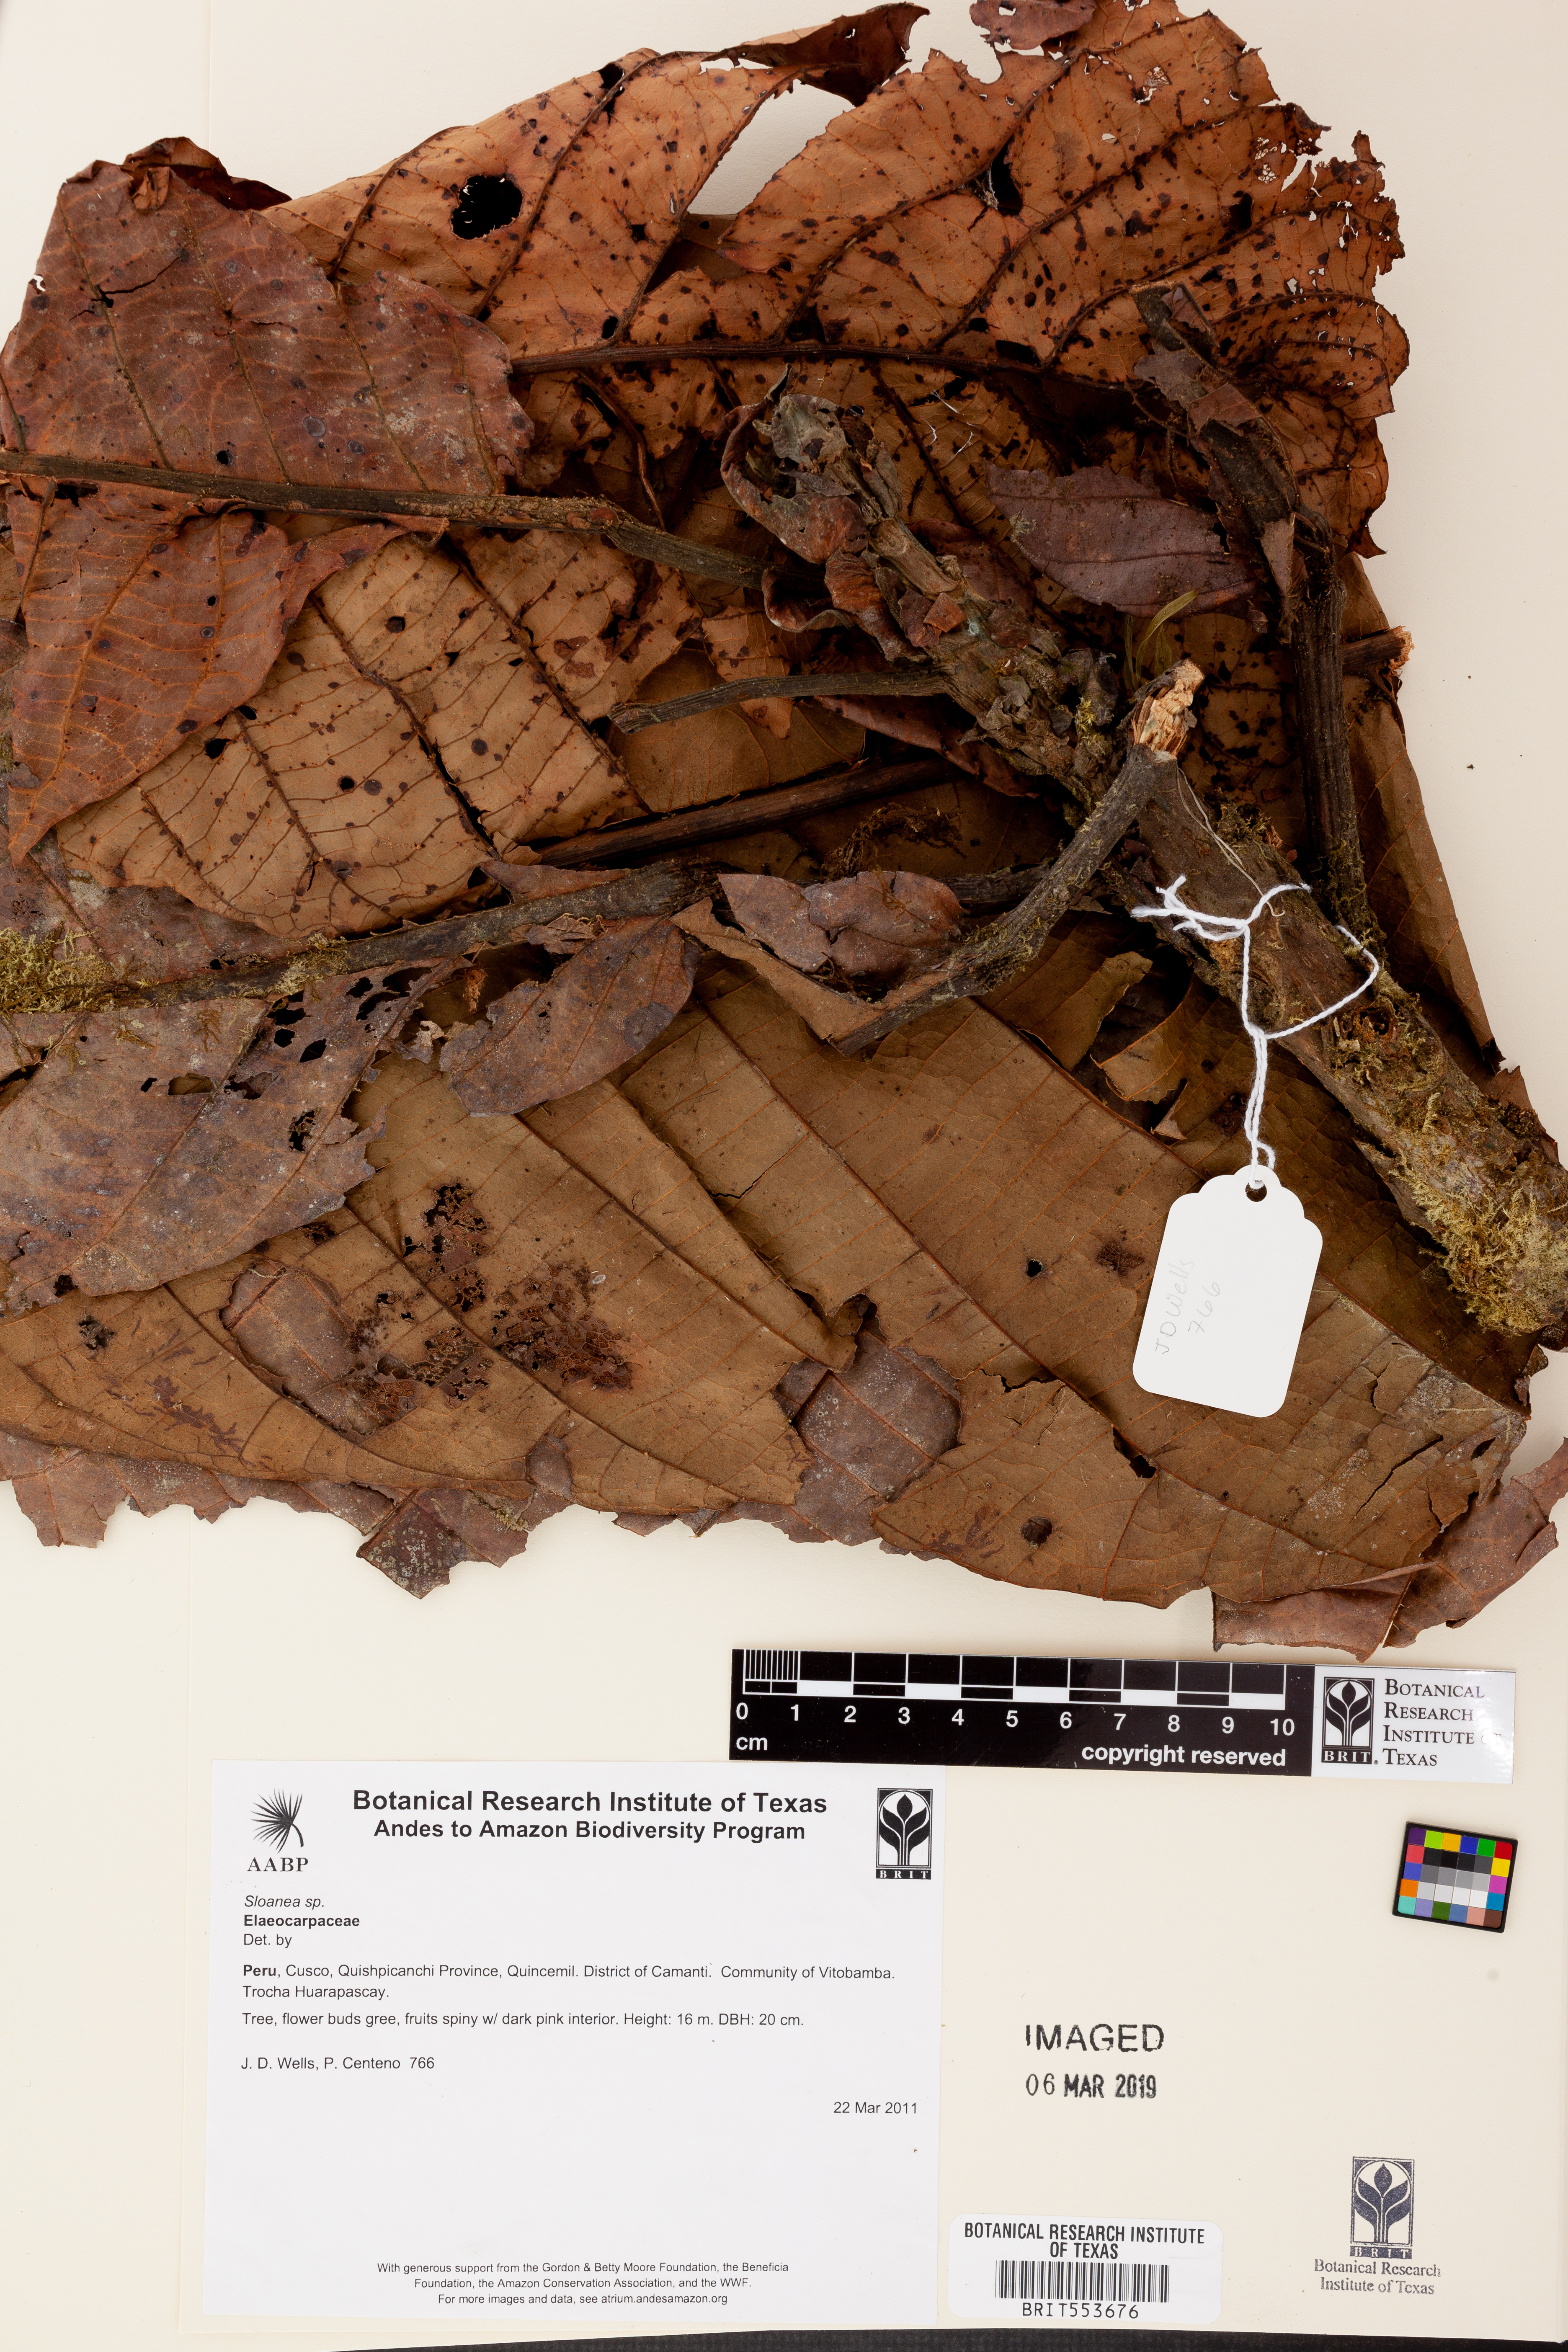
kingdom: Plantae
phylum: Tracheophyta
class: Magnoliopsida
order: Oxalidales
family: Elaeocarpaceae
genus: Sloanea
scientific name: Sloanea
